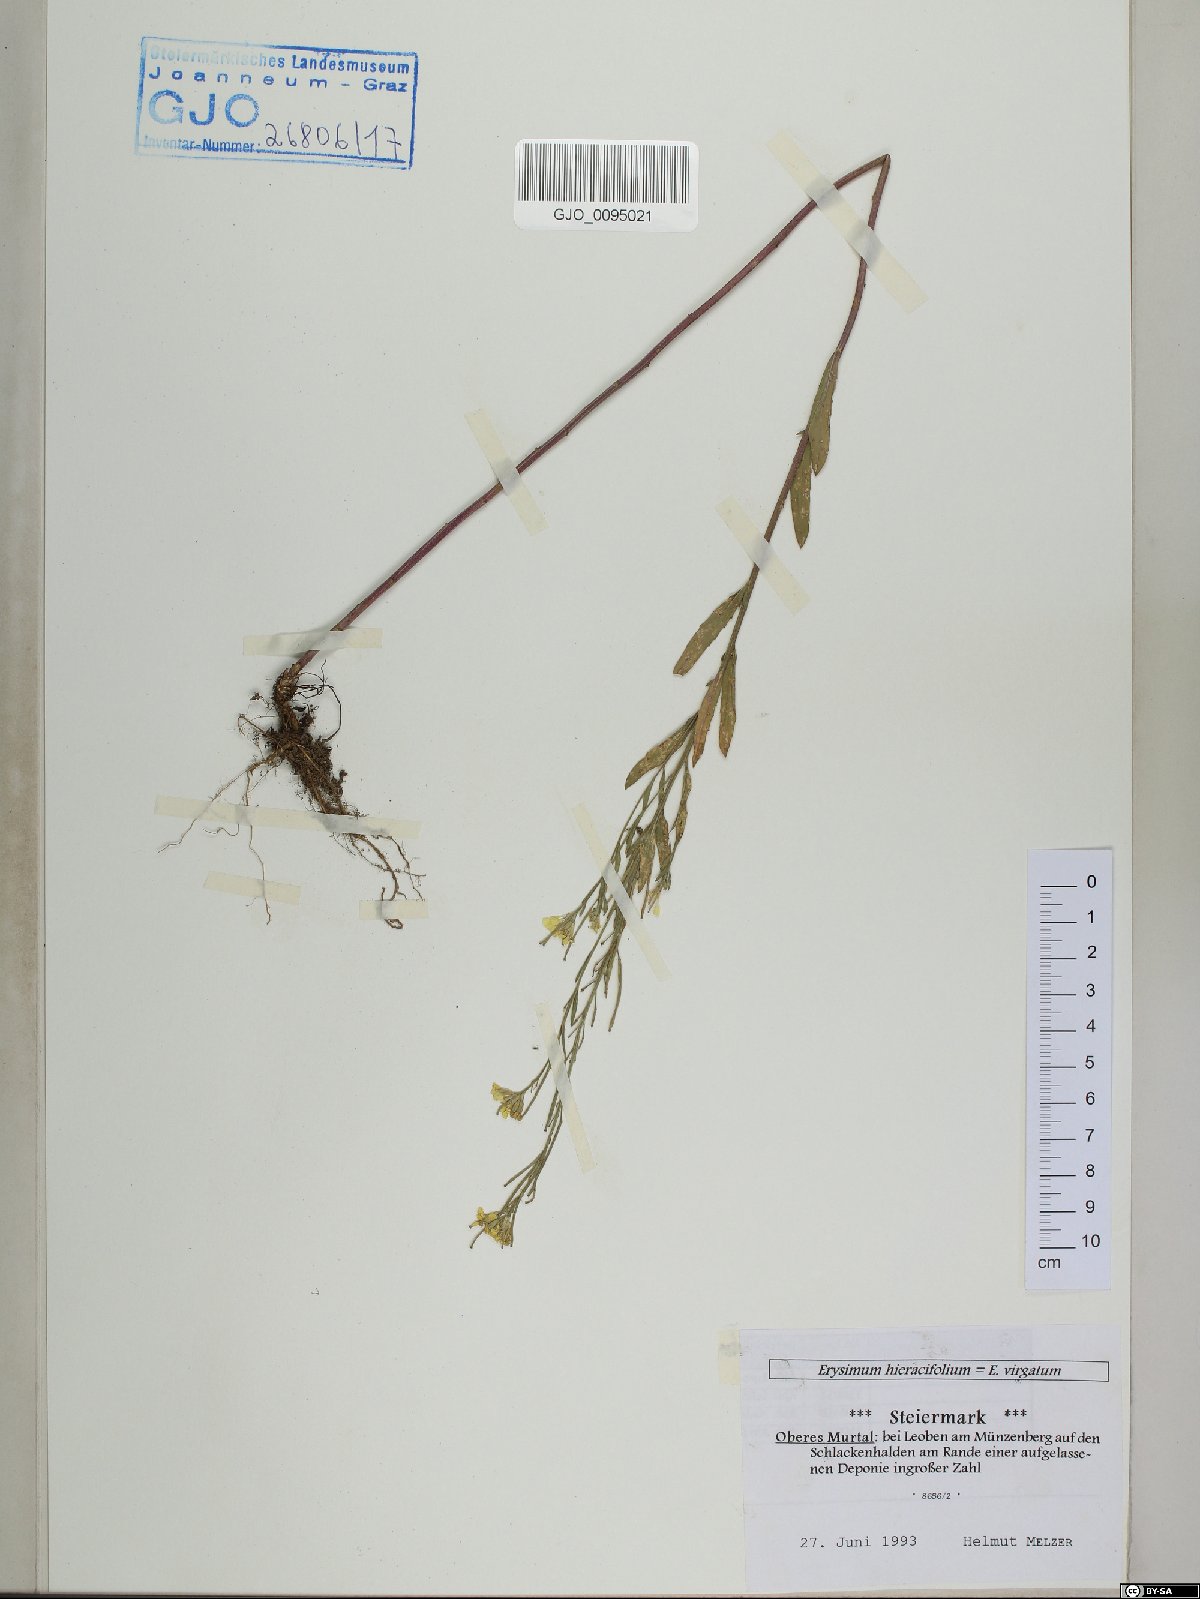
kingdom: Plantae
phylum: Tracheophyta
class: Magnoliopsida
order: Brassicales
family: Brassicaceae
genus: Erysimum
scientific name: Erysimum hieraciifolium
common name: European wallflower
